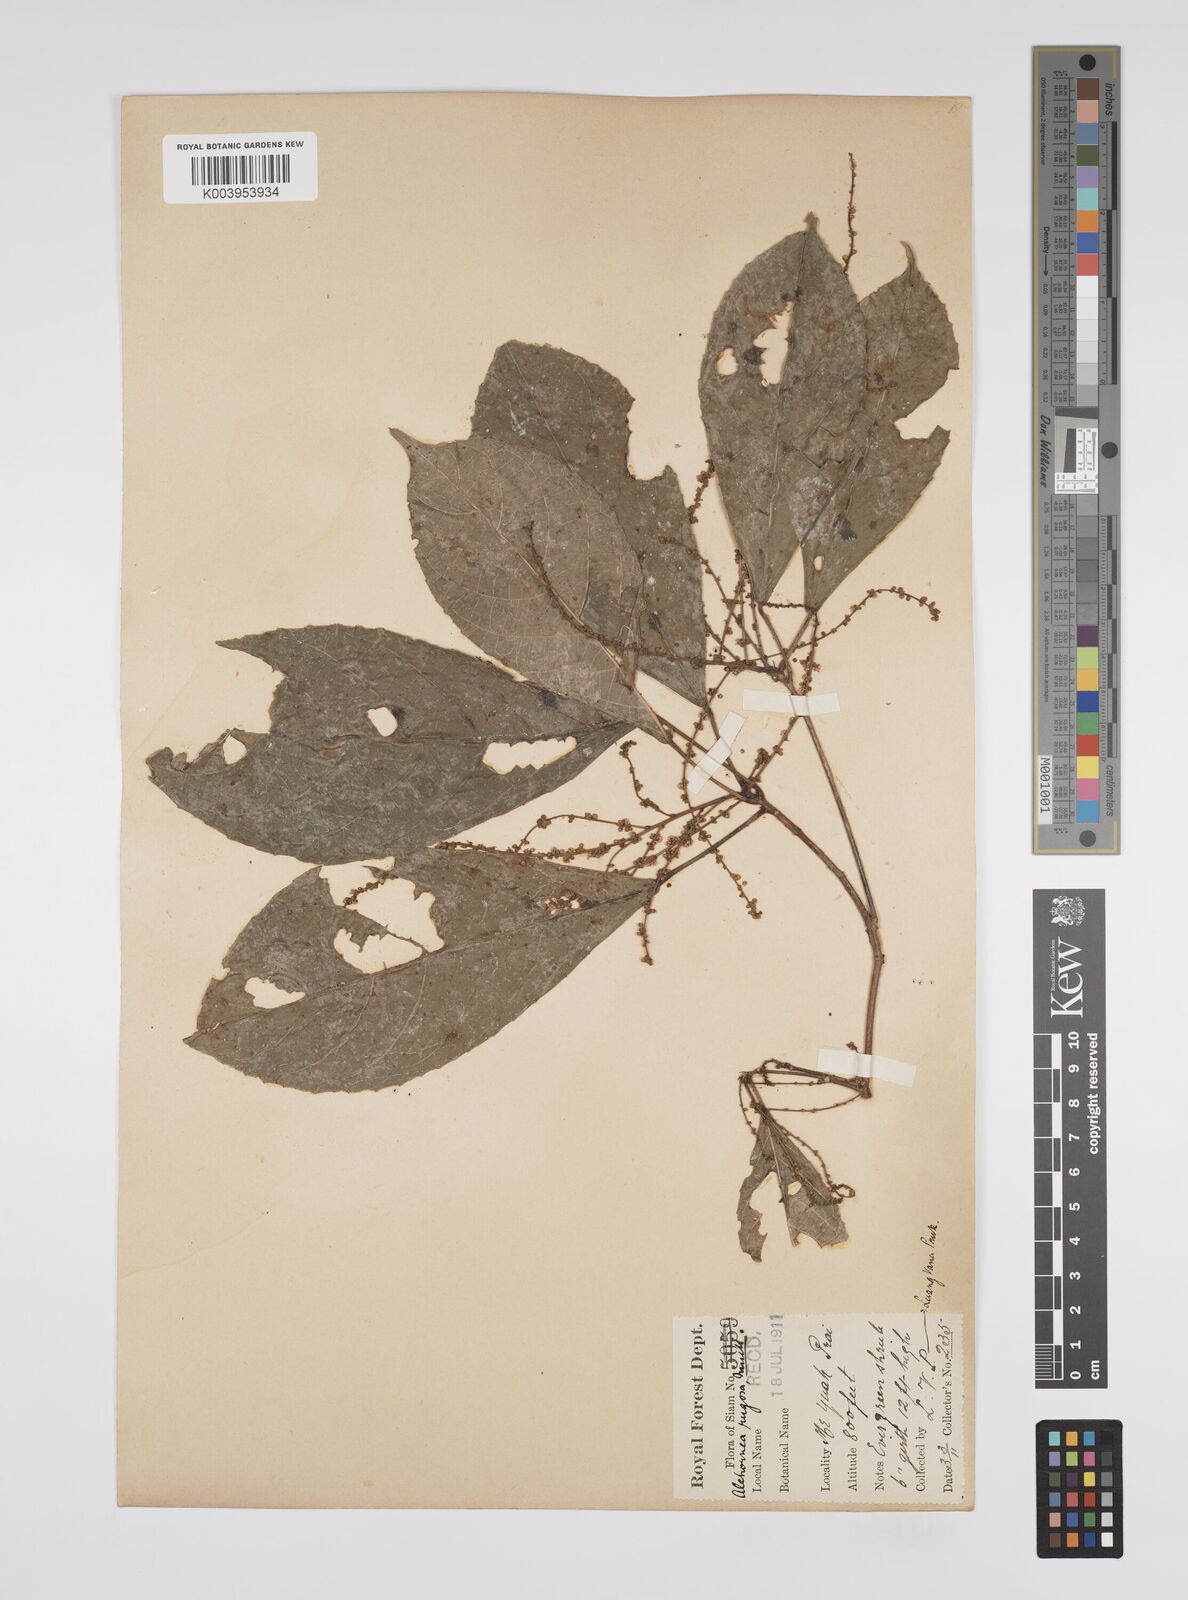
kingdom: Plantae
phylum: Tracheophyta
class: Magnoliopsida
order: Malpighiales
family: Euphorbiaceae
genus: Alchornea
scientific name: Alchornea rugosa
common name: Alchorntree
